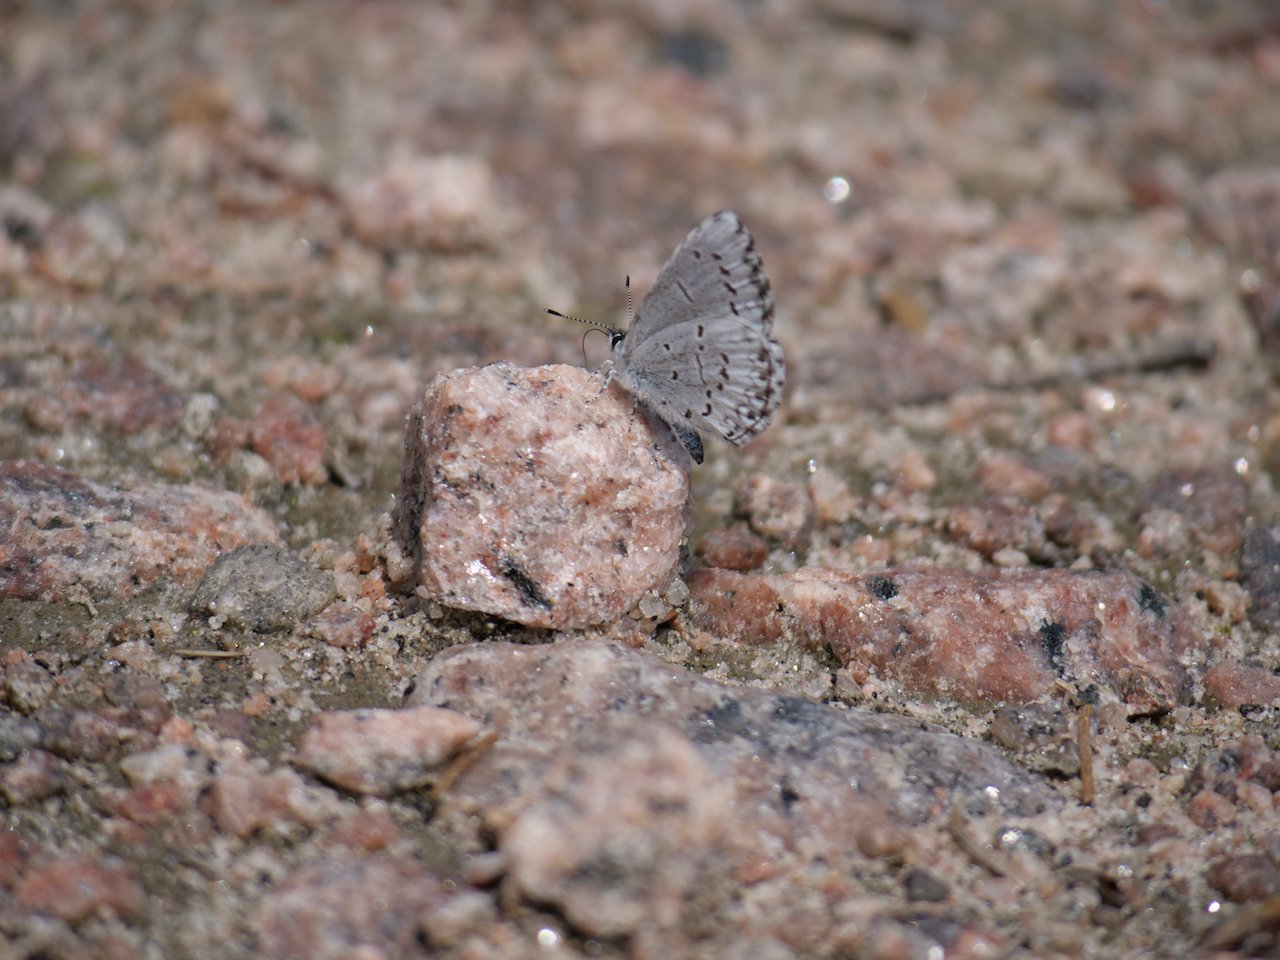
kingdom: Animalia
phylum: Arthropoda
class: Insecta
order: Lepidoptera
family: Lycaenidae
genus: Celastrina
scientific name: Celastrina lucia
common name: Northern Spring Azure
